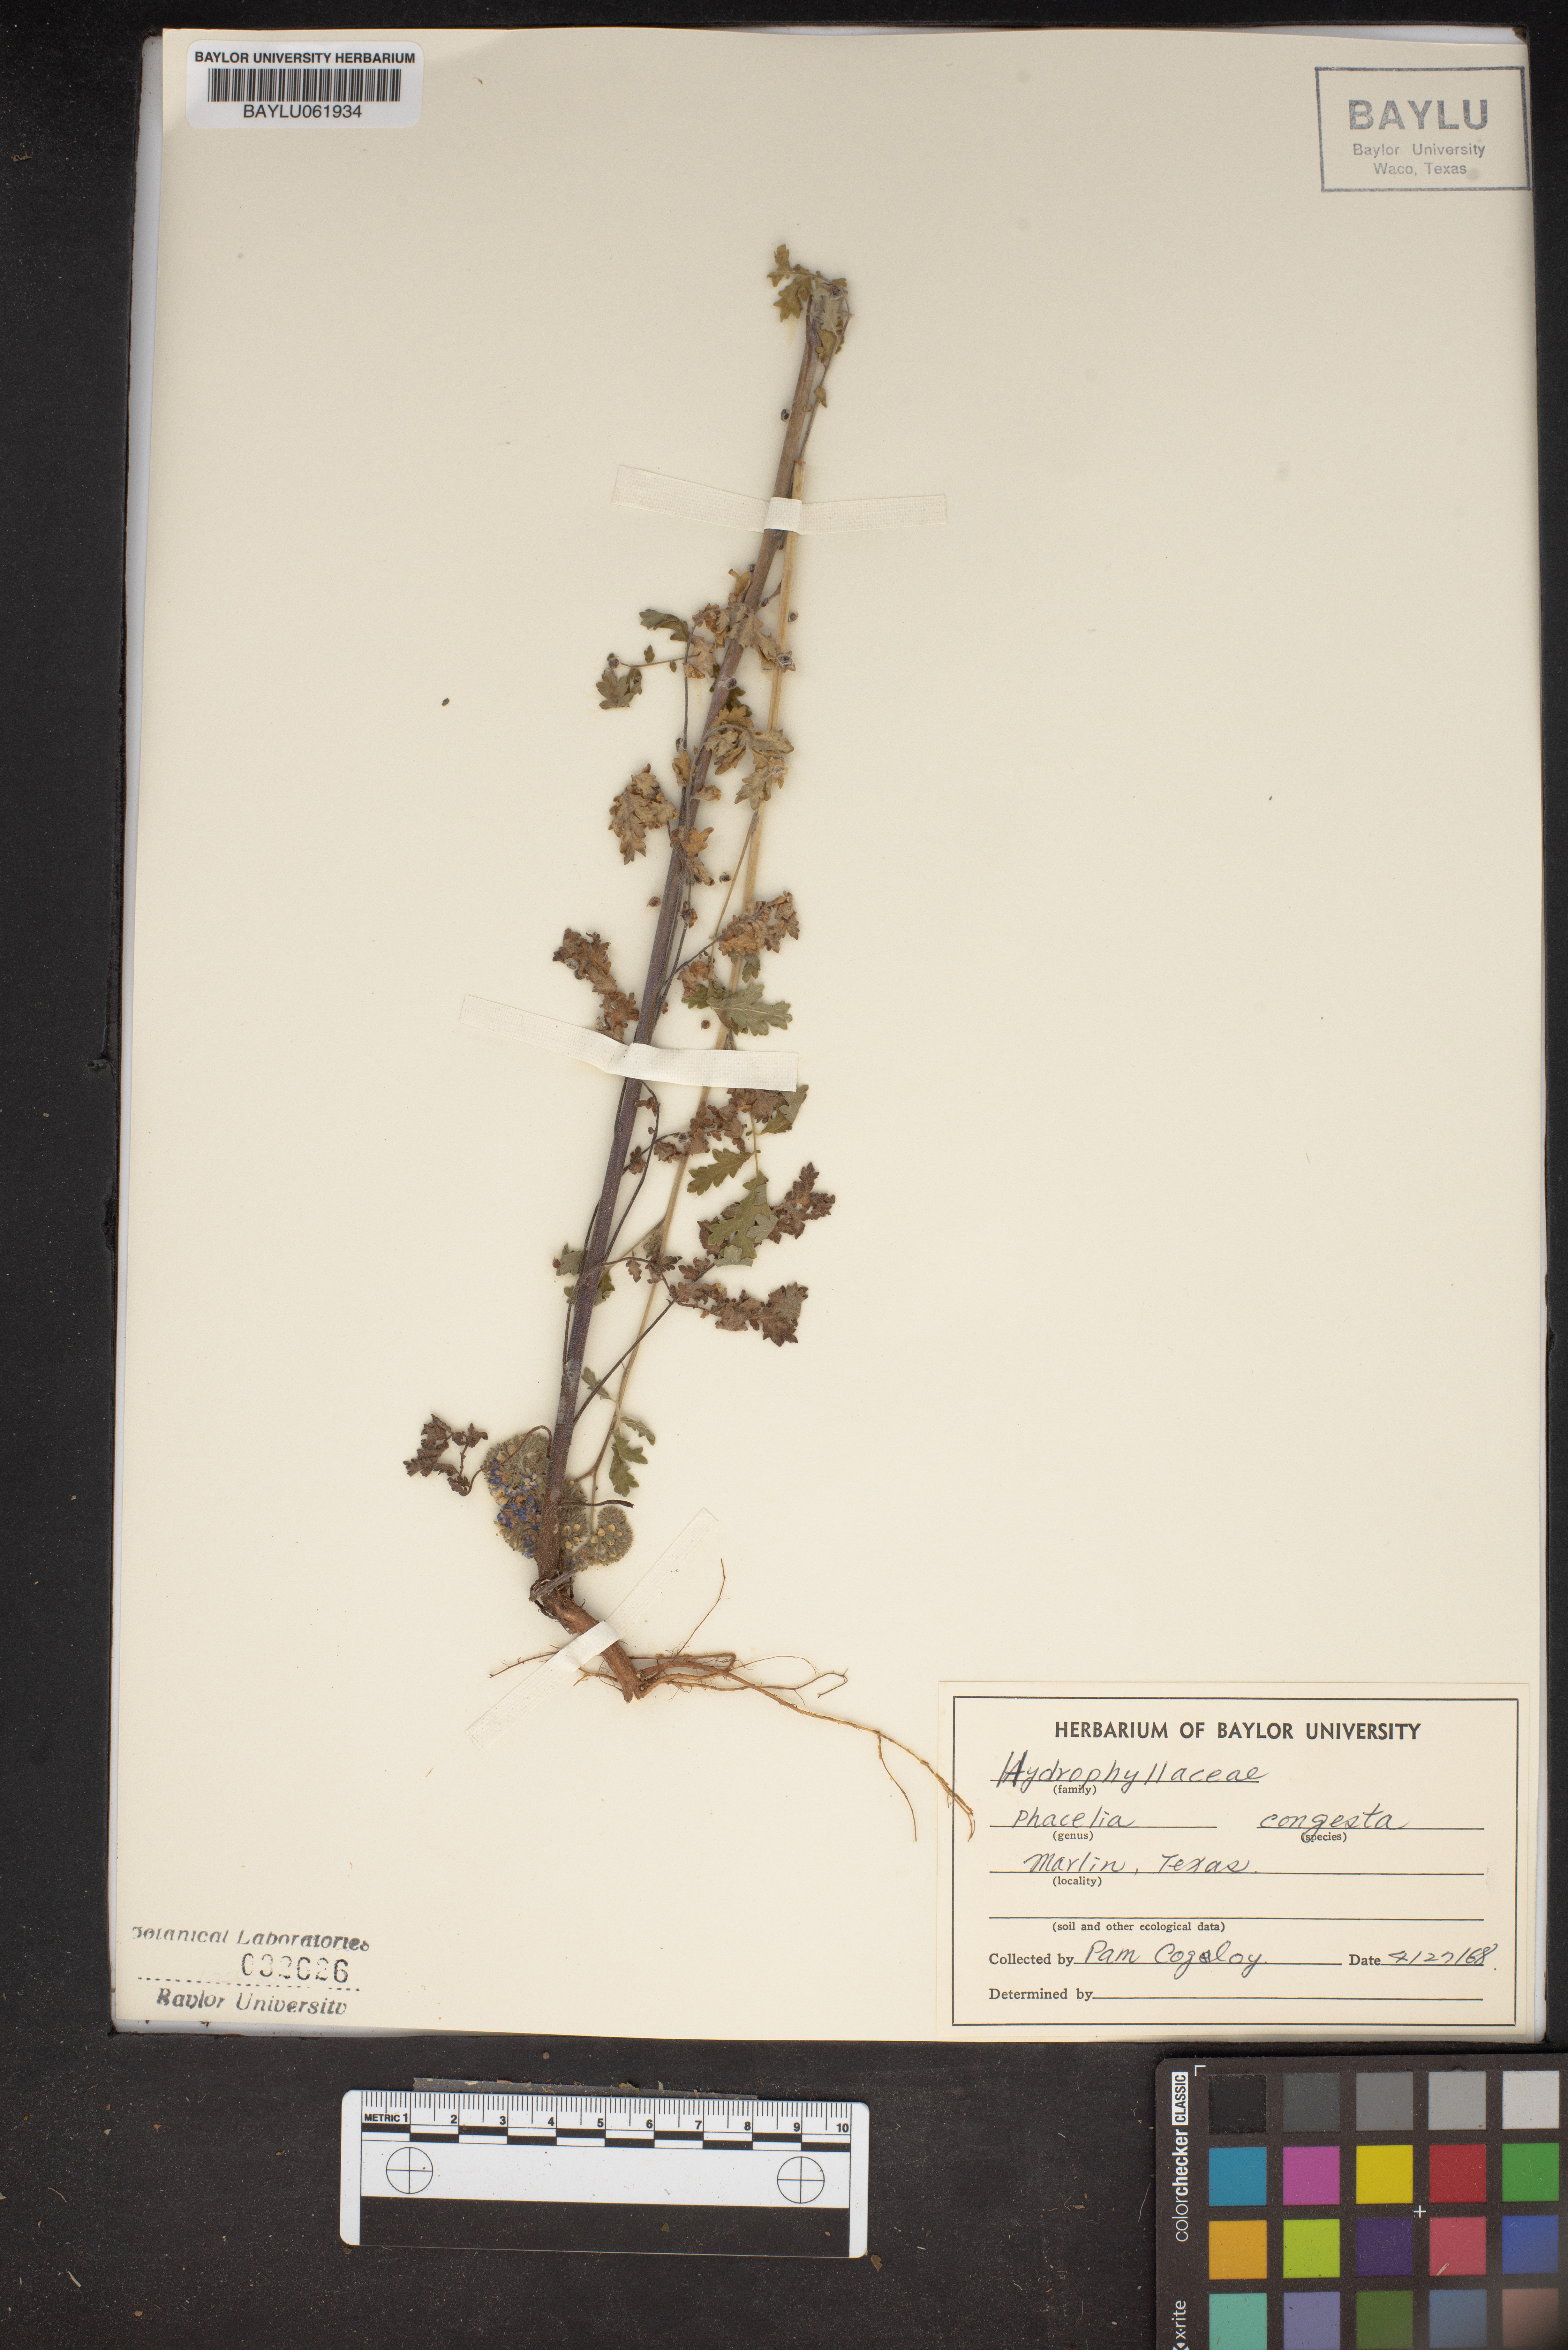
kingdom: Plantae
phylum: Tracheophyta
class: Magnoliopsida
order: Boraginales
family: Hydrophyllaceae
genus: Phacelia
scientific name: Phacelia congesta
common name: Blue curls
